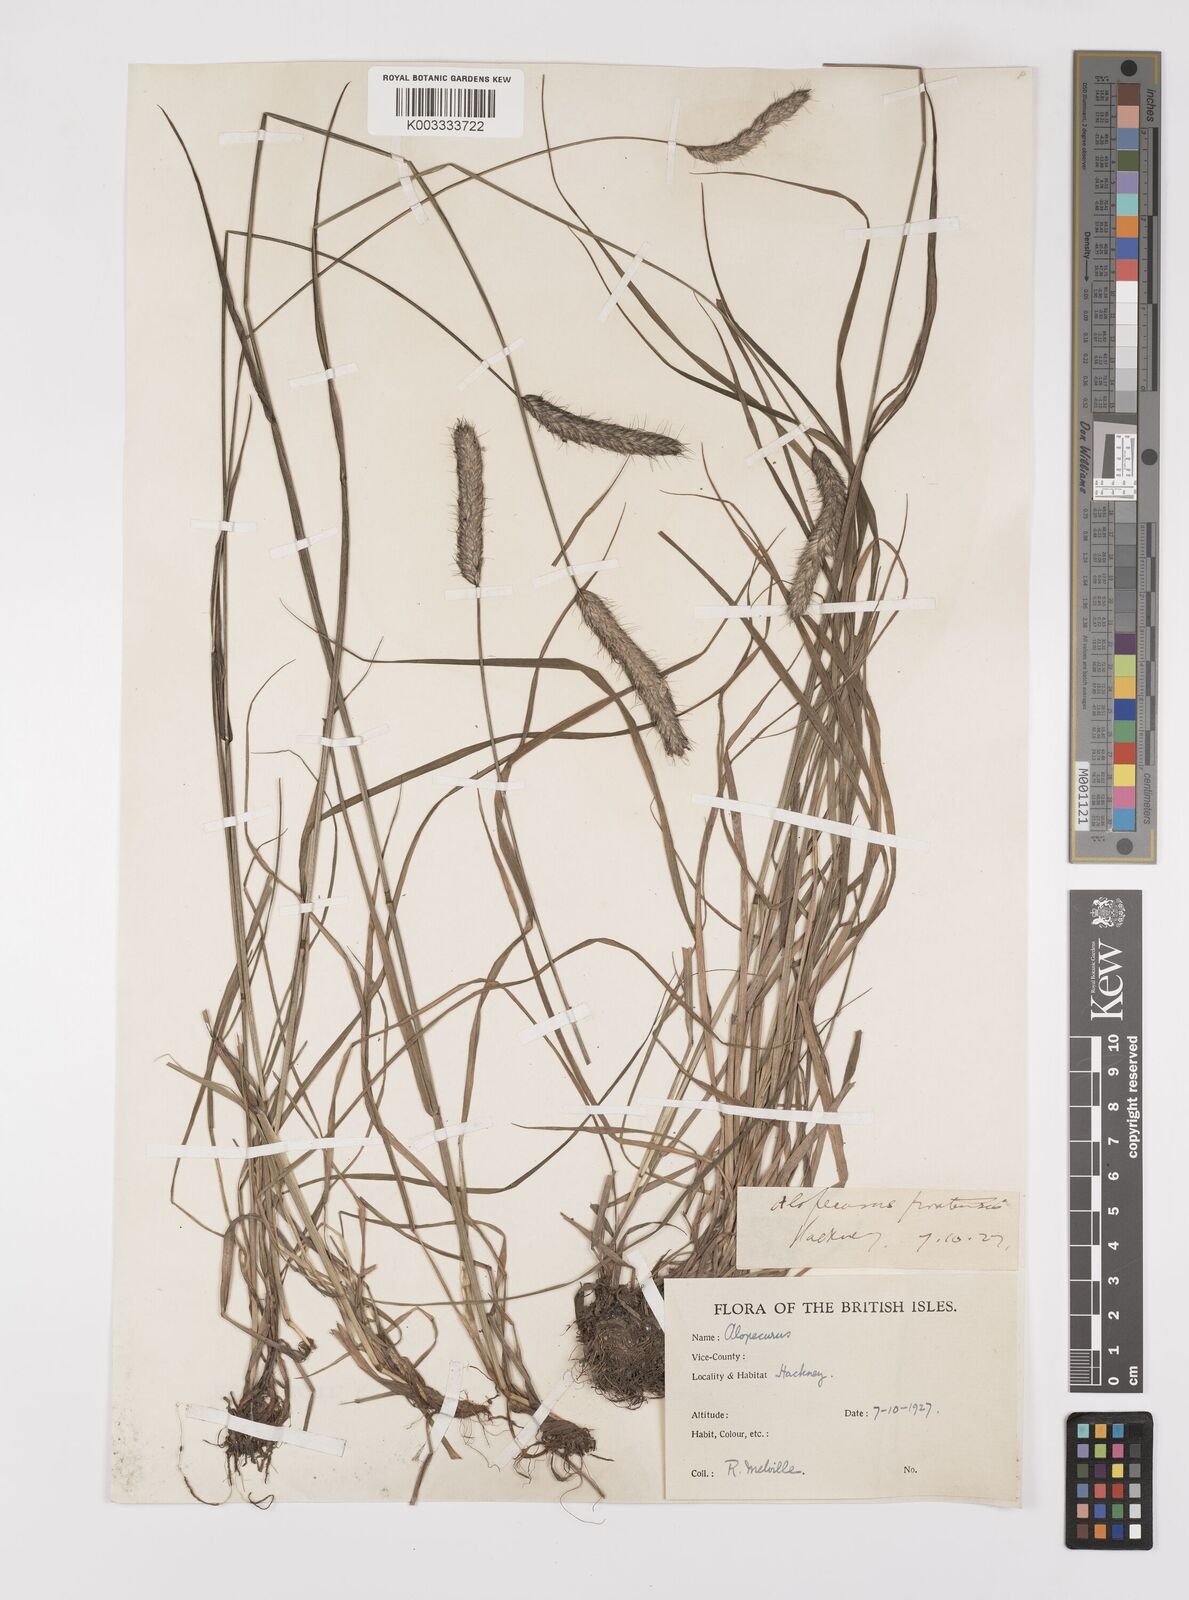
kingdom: Plantae
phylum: Tracheophyta
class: Liliopsida
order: Poales
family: Poaceae
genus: Alopecurus
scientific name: Alopecurus pratensis
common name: Meadow foxtail
